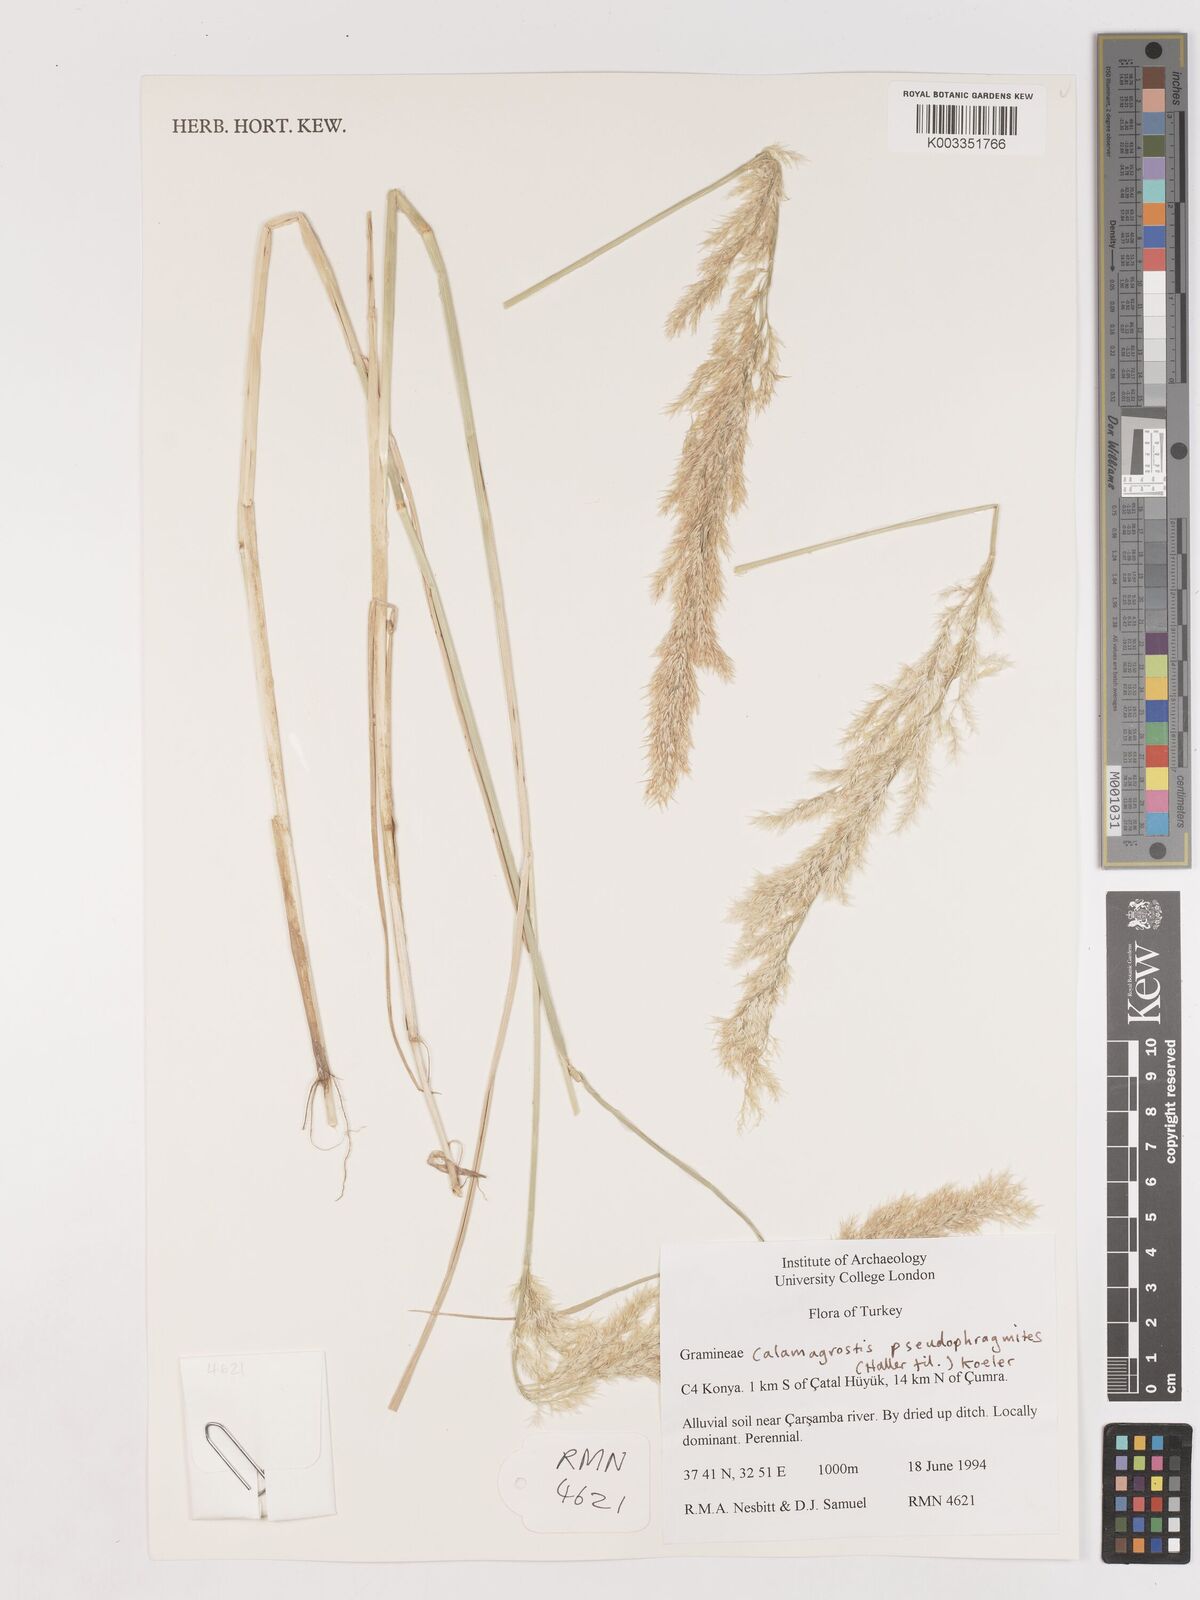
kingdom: Plantae
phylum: Tracheophyta
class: Liliopsida
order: Poales
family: Poaceae
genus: Calamagrostis
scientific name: Calamagrostis pseudophragmites
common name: Coastal small-reed
